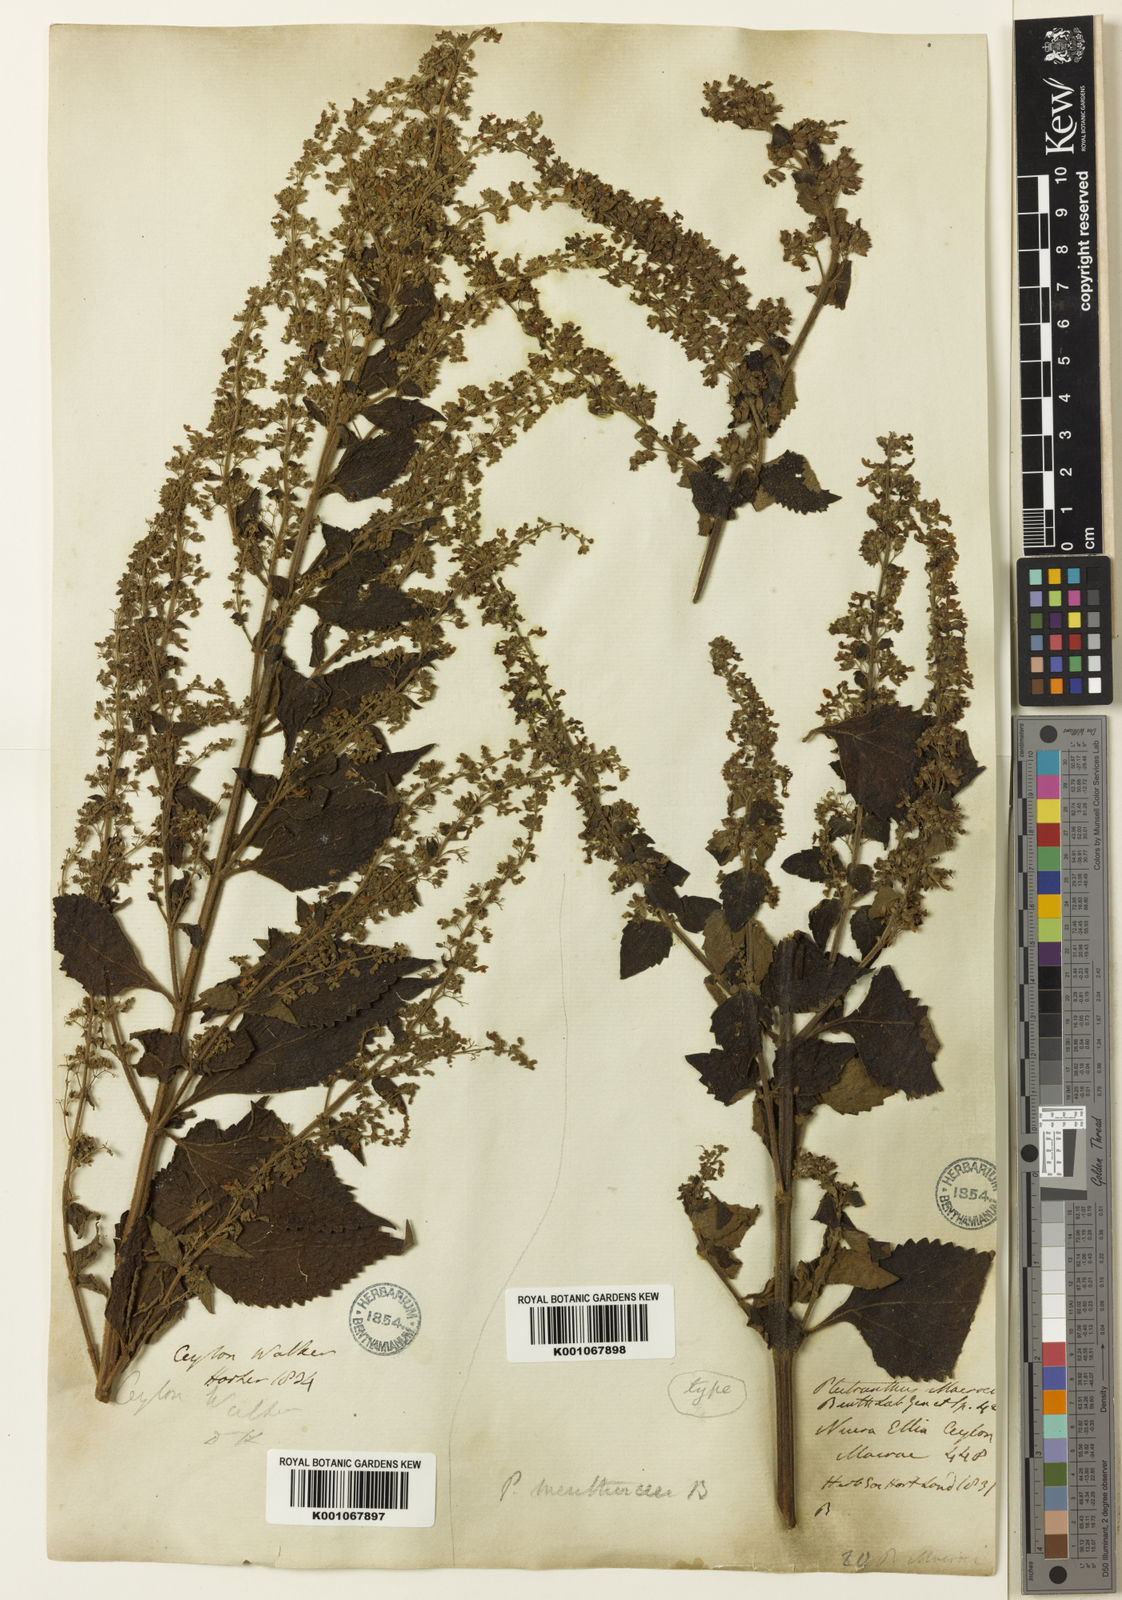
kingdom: Plantae
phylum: Tracheophyta
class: Magnoliopsida
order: Lamiales
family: Lamiaceae
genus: Isodon
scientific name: Isodon
